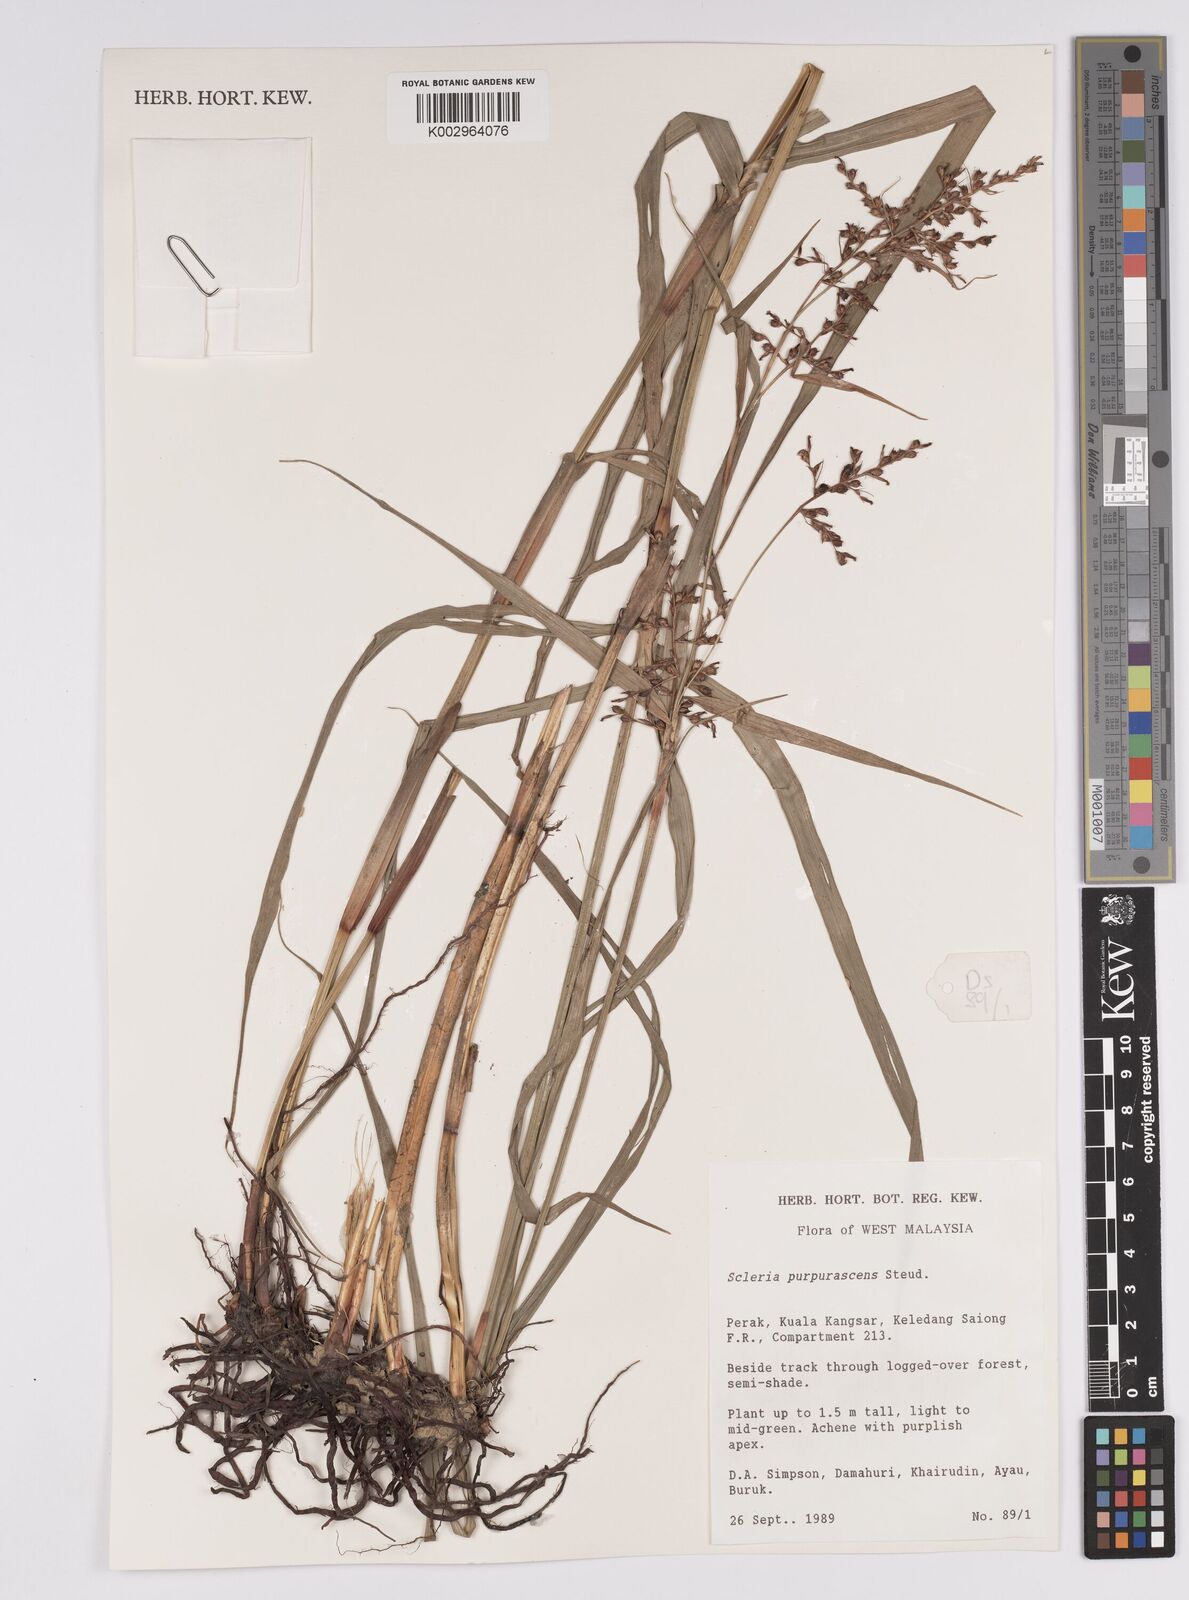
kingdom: Plantae
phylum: Tracheophyta
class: Liliopsida
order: Poales
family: Cyperaceae
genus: Scleria
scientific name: Scleria purpurascens
